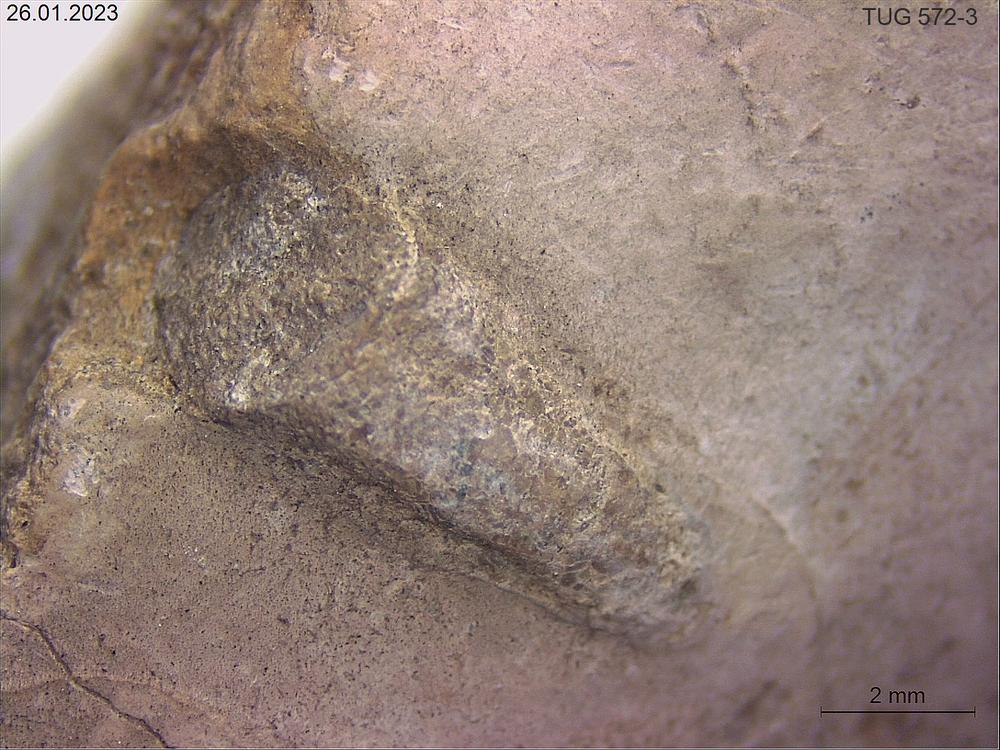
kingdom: Animalia
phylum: Sipuncula
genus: Trypanites
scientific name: Trypanites
